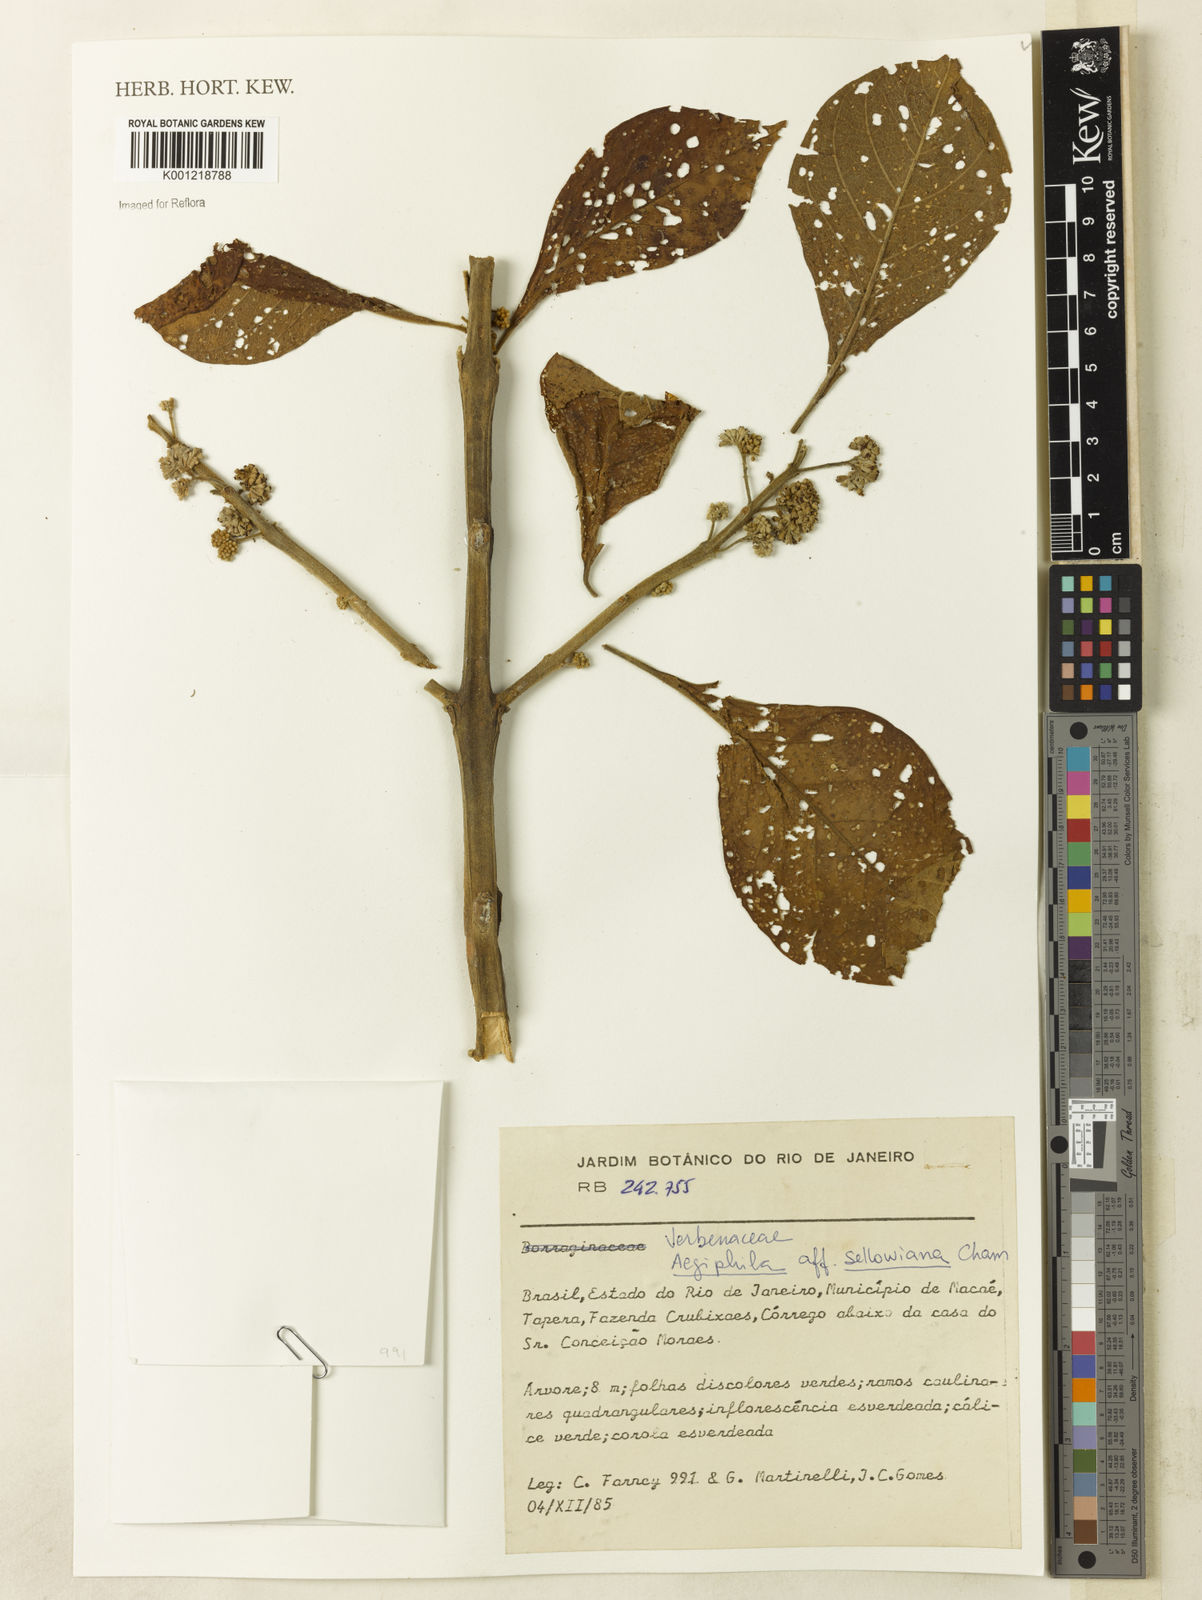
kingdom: Plantae
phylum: Tracheophyta
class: Magnoliopsida
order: Lamiales
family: Lamiaceae
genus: Aegiphila
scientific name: Aegiphila verticillata
